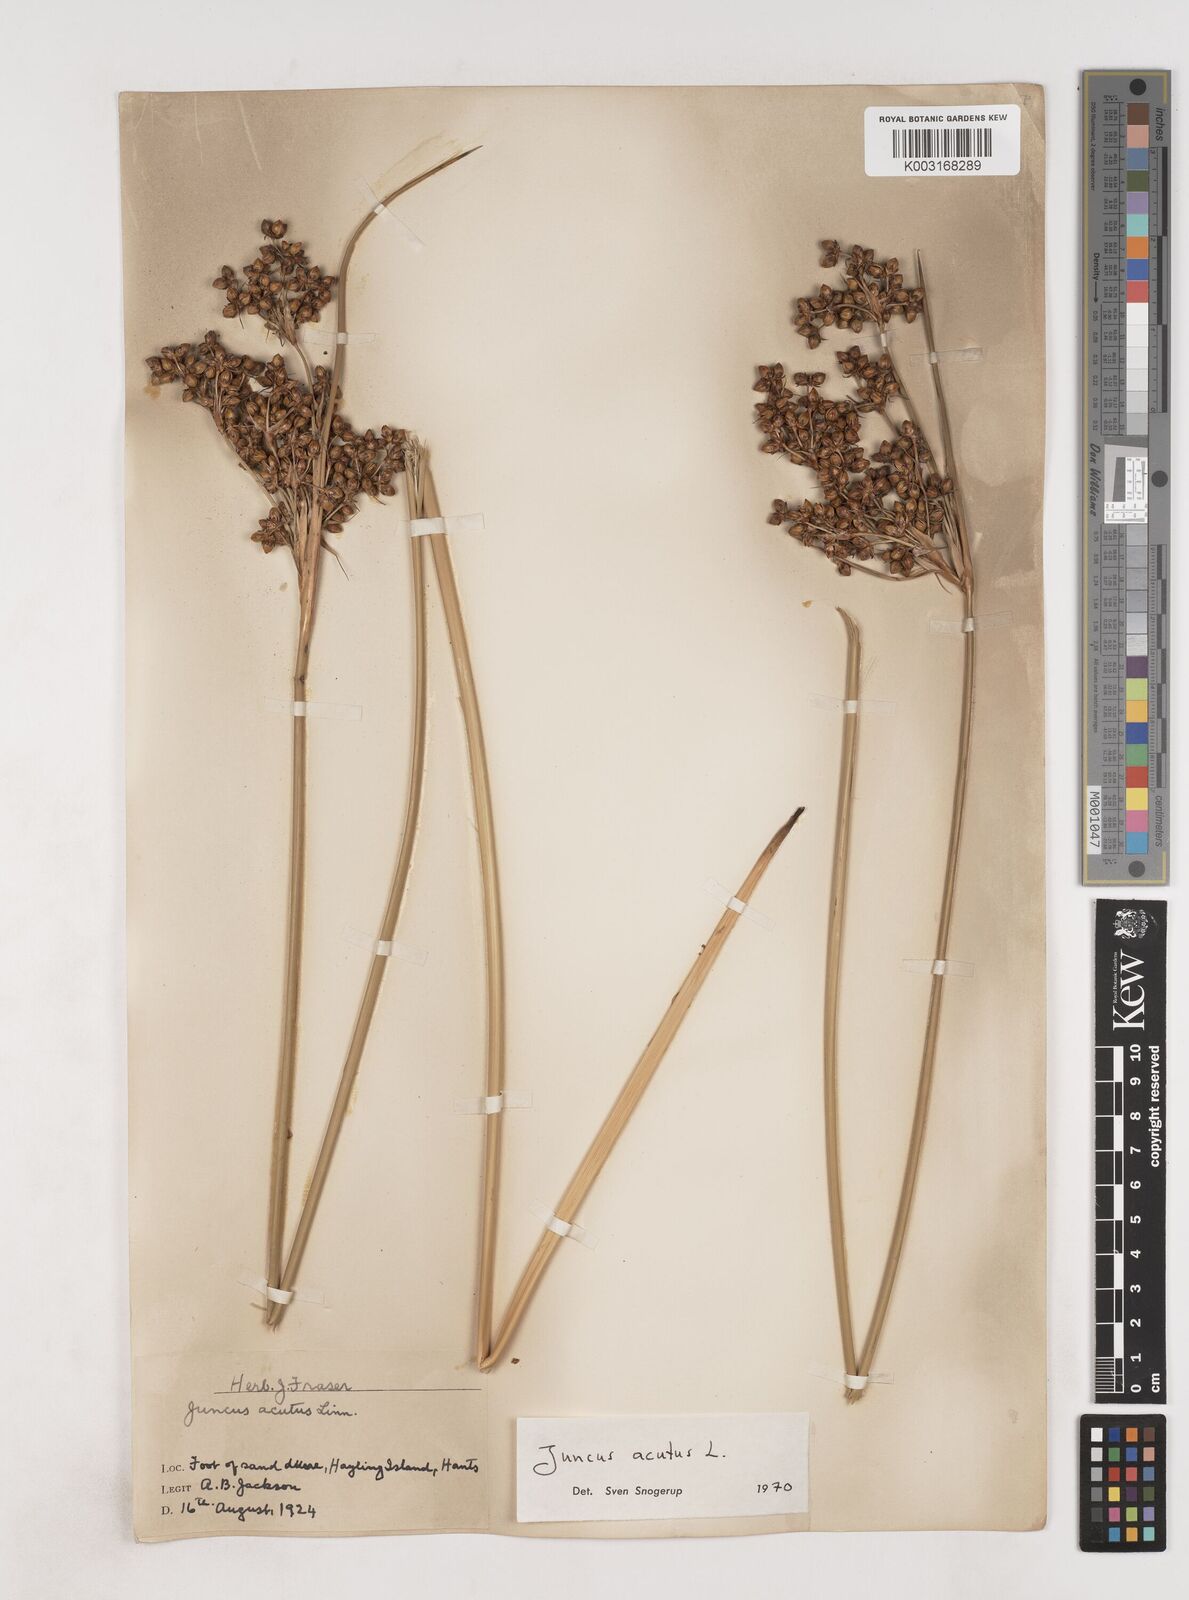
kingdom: Plantae
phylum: Tracheophyta
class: Liliopsida
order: Poales
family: Juncaceae
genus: Juncus
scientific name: Juncus acutus
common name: Sharp rush
